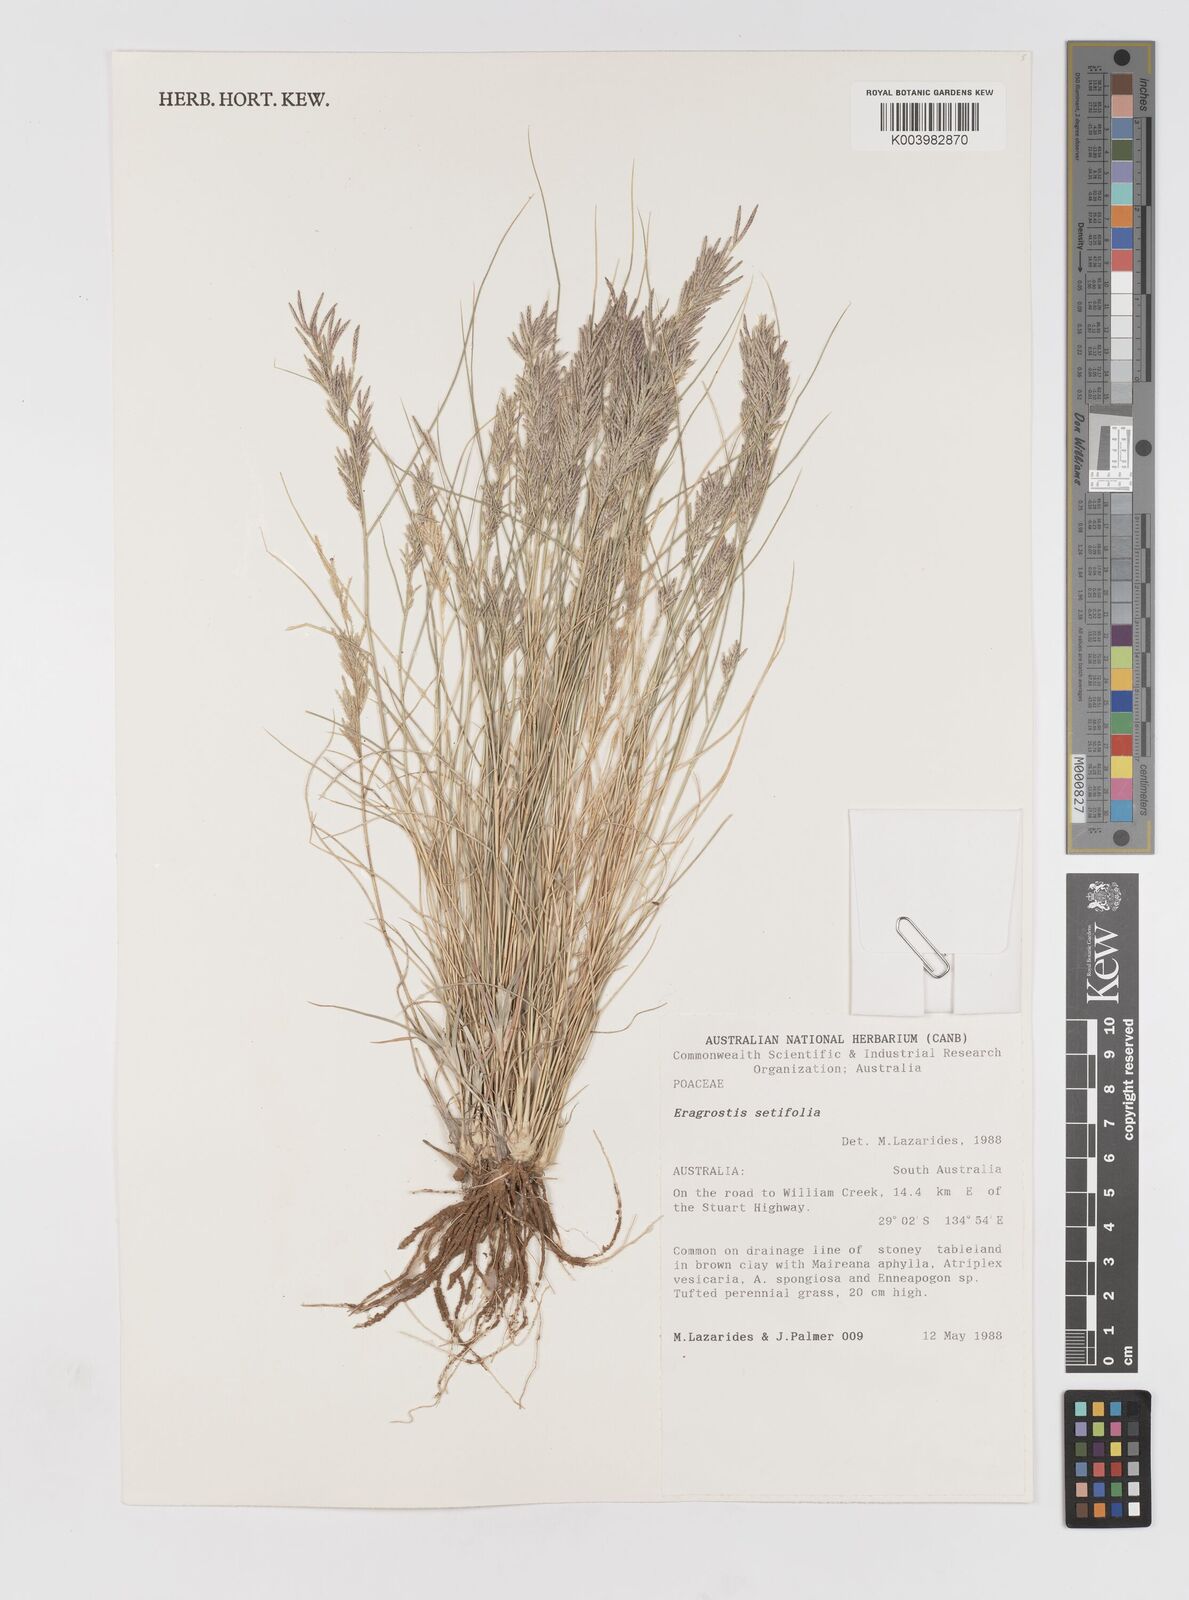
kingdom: Plantae
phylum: Tracheophyta
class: Liliopsida
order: Poales
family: Poaceae
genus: Eragrostis
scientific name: Eragrostis setifolia
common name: Bristleleaf lovegrass
